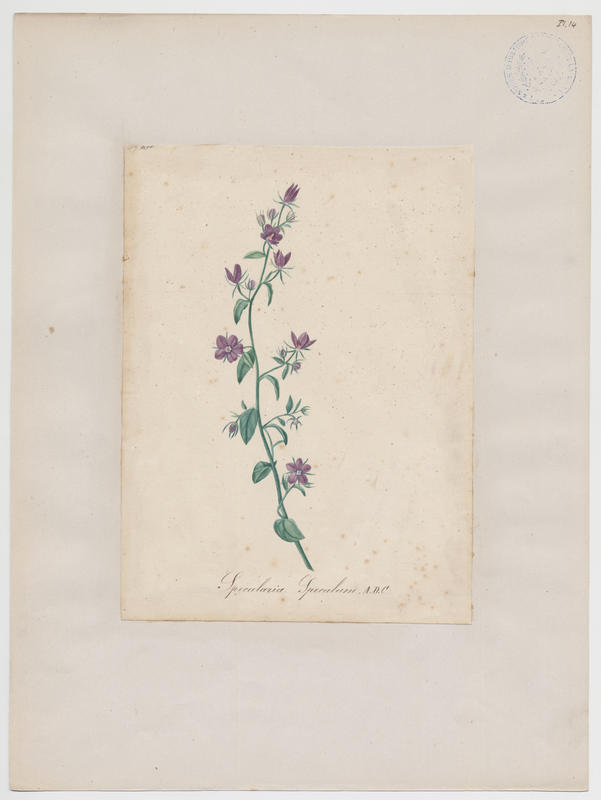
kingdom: Plantae
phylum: Tracheophyta
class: Magnoliopsida
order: Asterales
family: Campanulaceae
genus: Legousia
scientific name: Legousia speculum-veneris
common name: Large venus's-looking-glass
